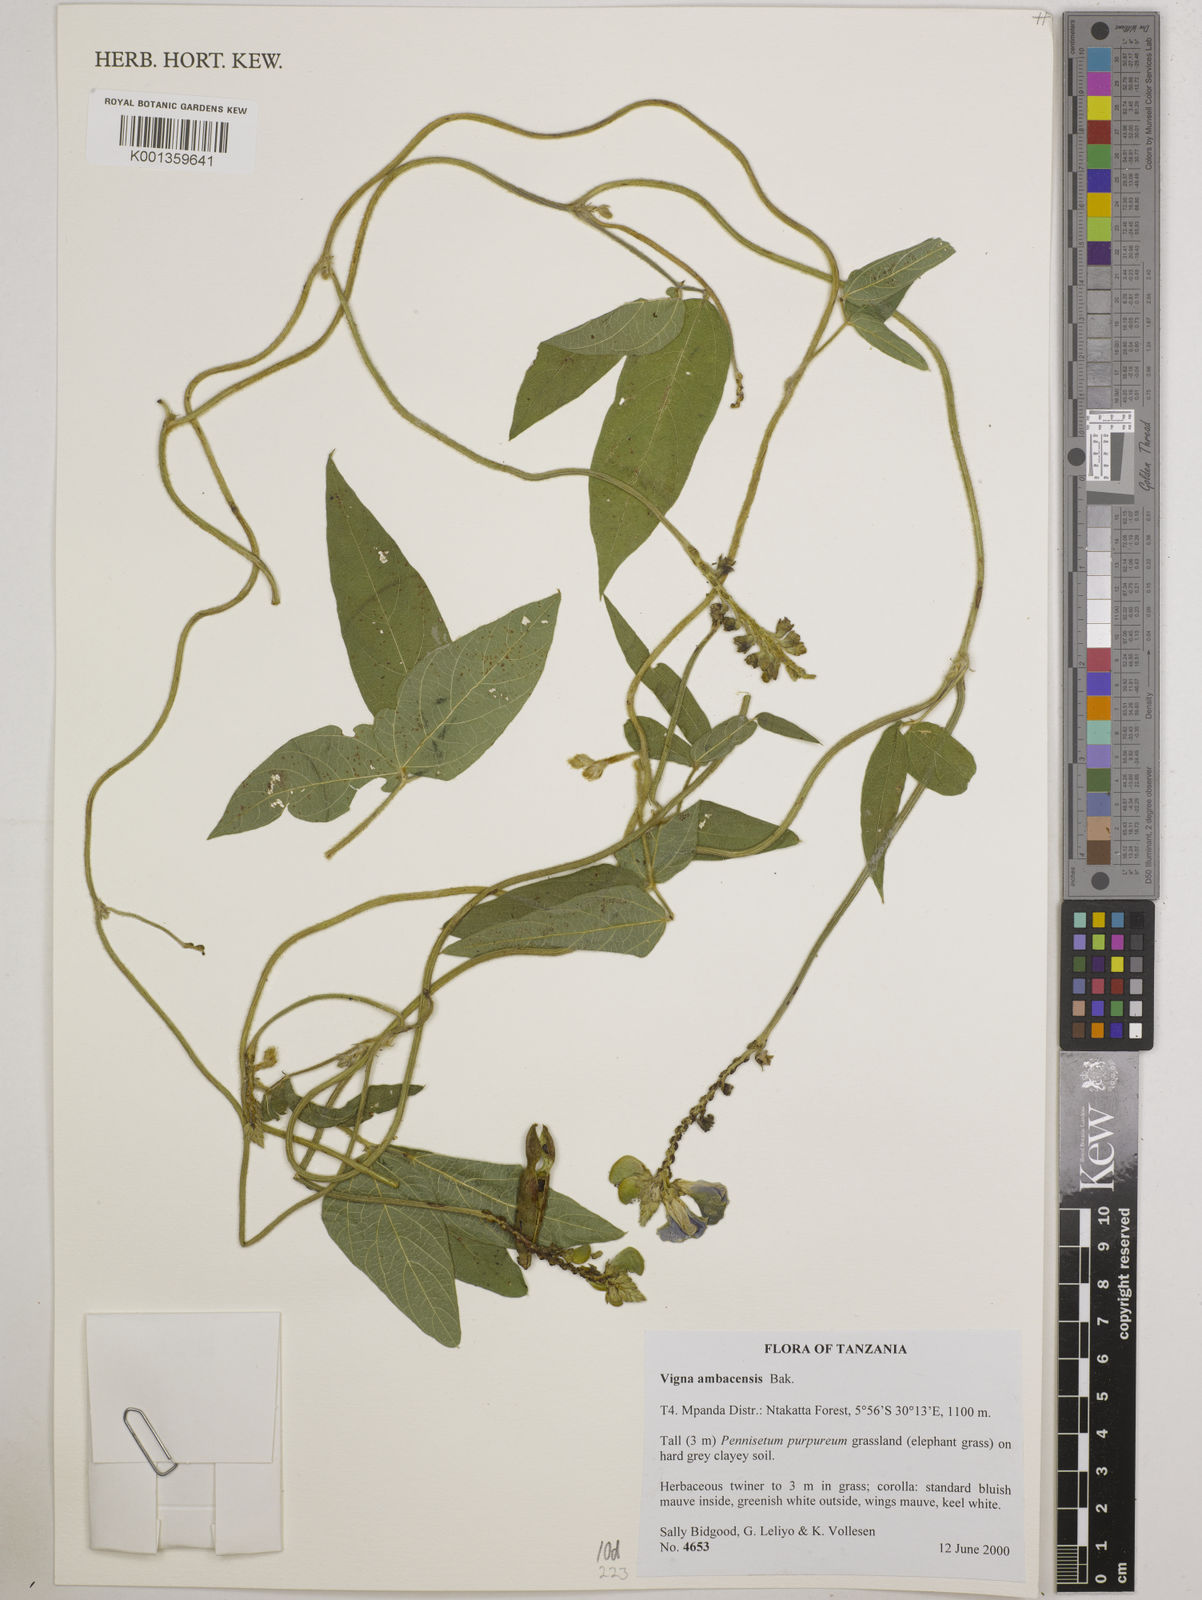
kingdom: Plantae
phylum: Tracheophyta
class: Magnoliopsida
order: Fabales
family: Fabaceae
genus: Vigna
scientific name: Vigna ambacensis
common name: Tsarkiyan zomo
